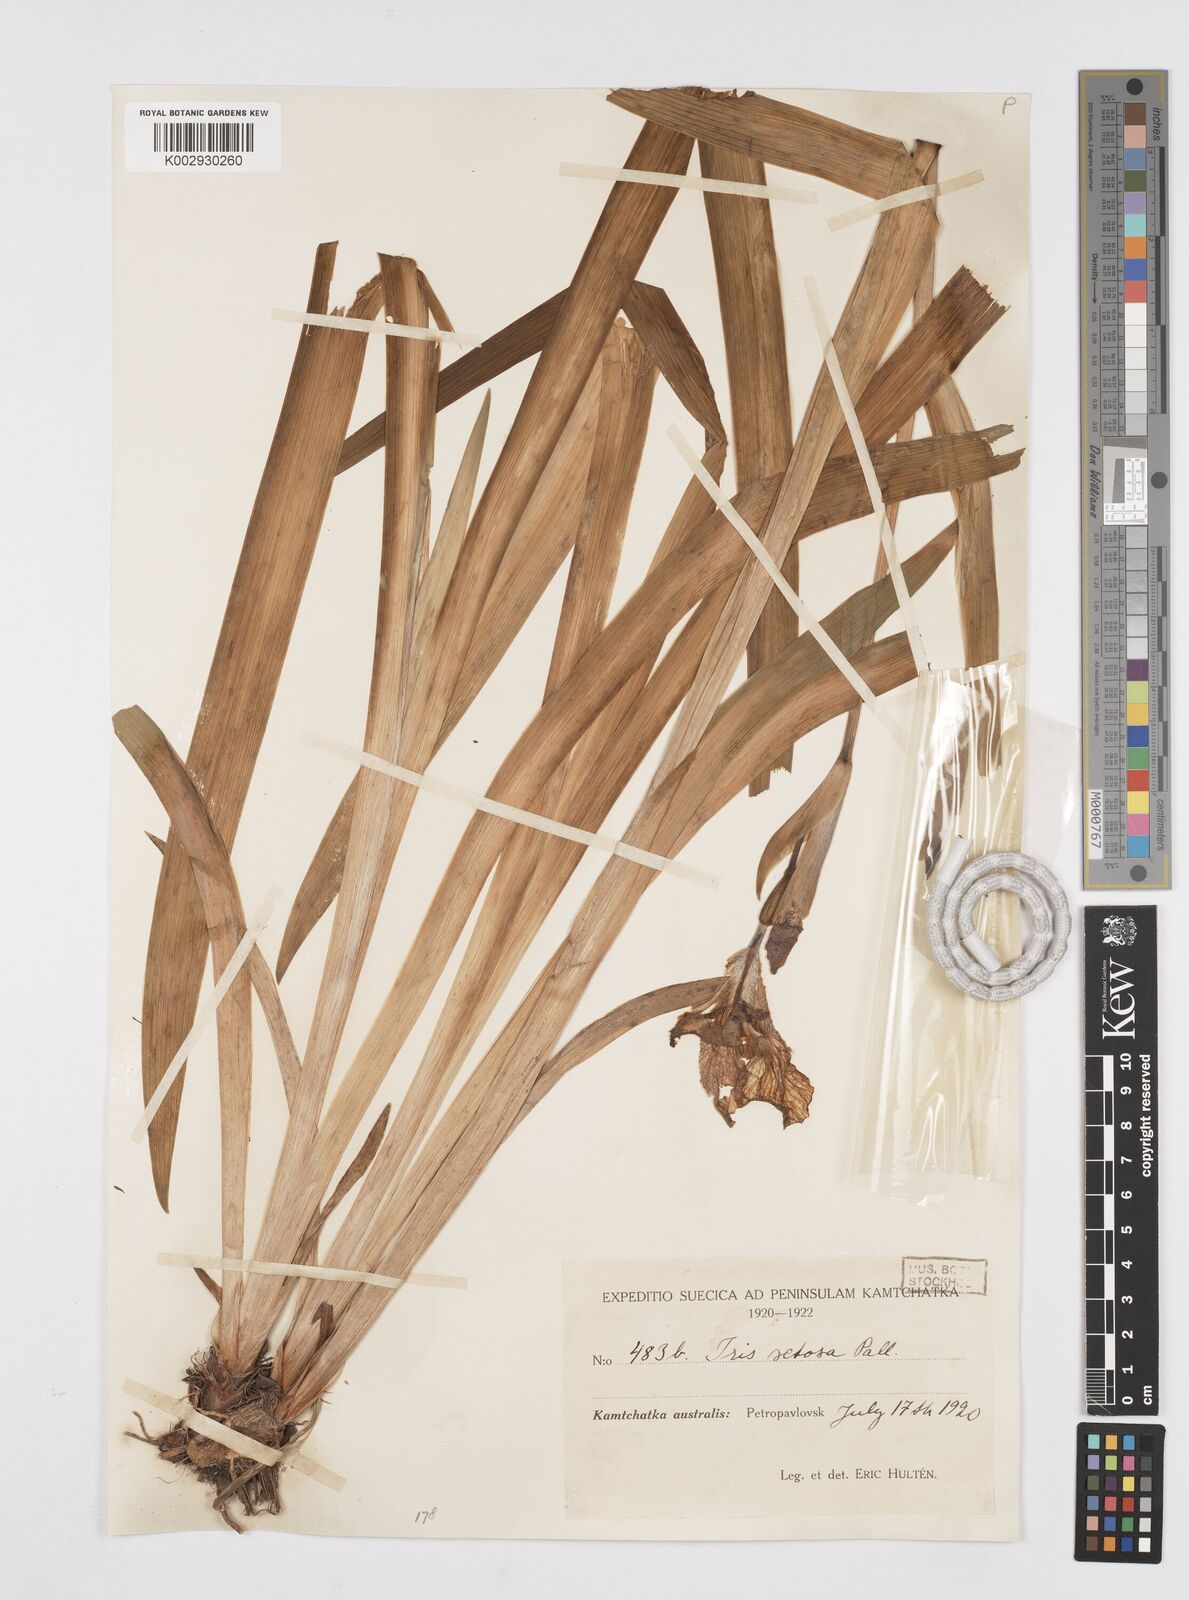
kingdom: Plantae
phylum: Tracheophyta
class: Liliopsida
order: Asparagales
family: Iridaceae
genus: Iris
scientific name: Iris setosa
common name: Arctic blue flag
